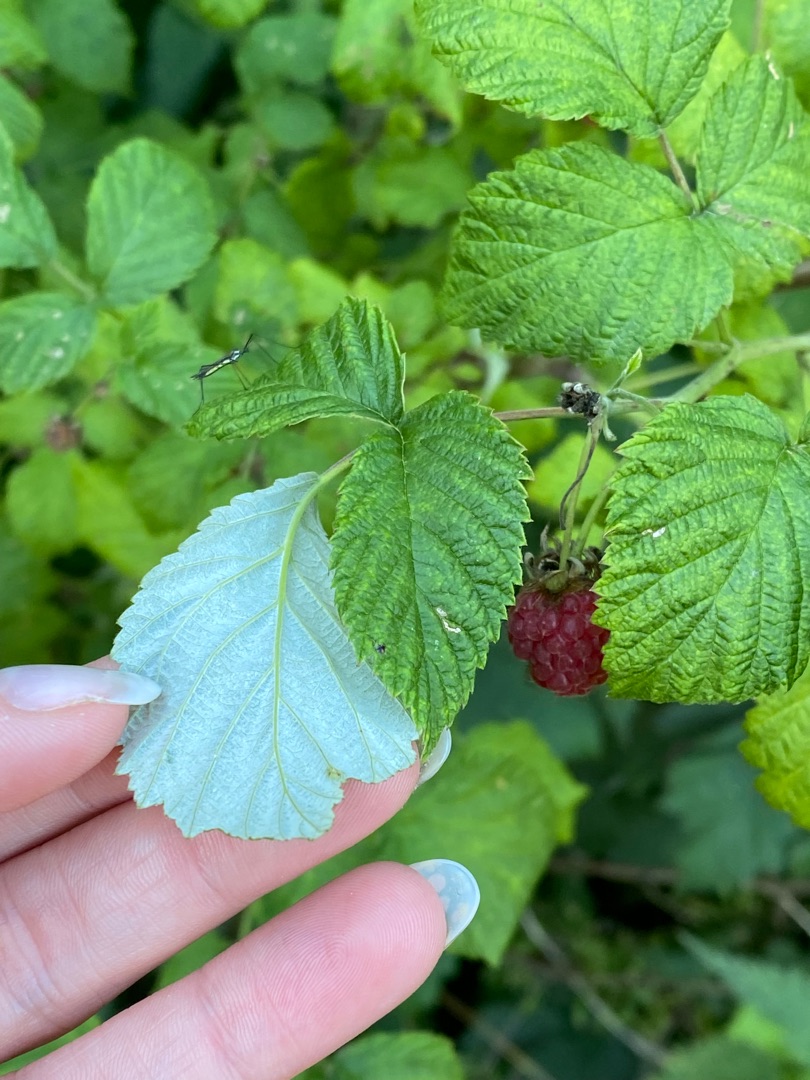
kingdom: Plantae
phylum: Tracheophyta
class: Magnoliopsida
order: Rosales
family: Rosaceae
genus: Rubus
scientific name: Rubus idaeus
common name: Hindbær
